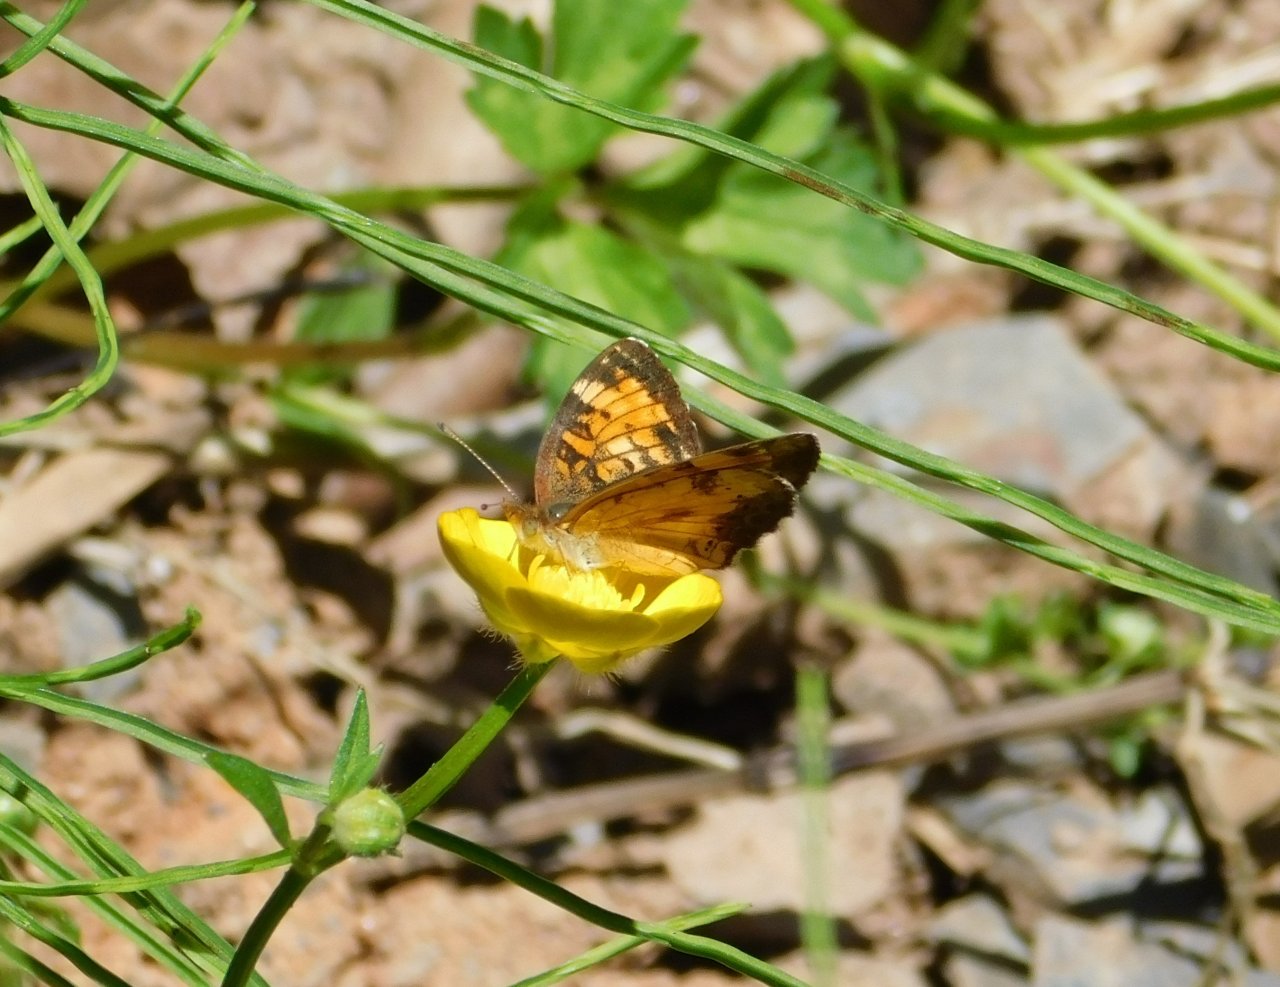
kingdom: Animalia
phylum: Arthropoda
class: Insecta
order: Lepidoptera
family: Nymphalidae
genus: Phyciodes
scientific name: Phyciodes tharos
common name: Northern Crescent
